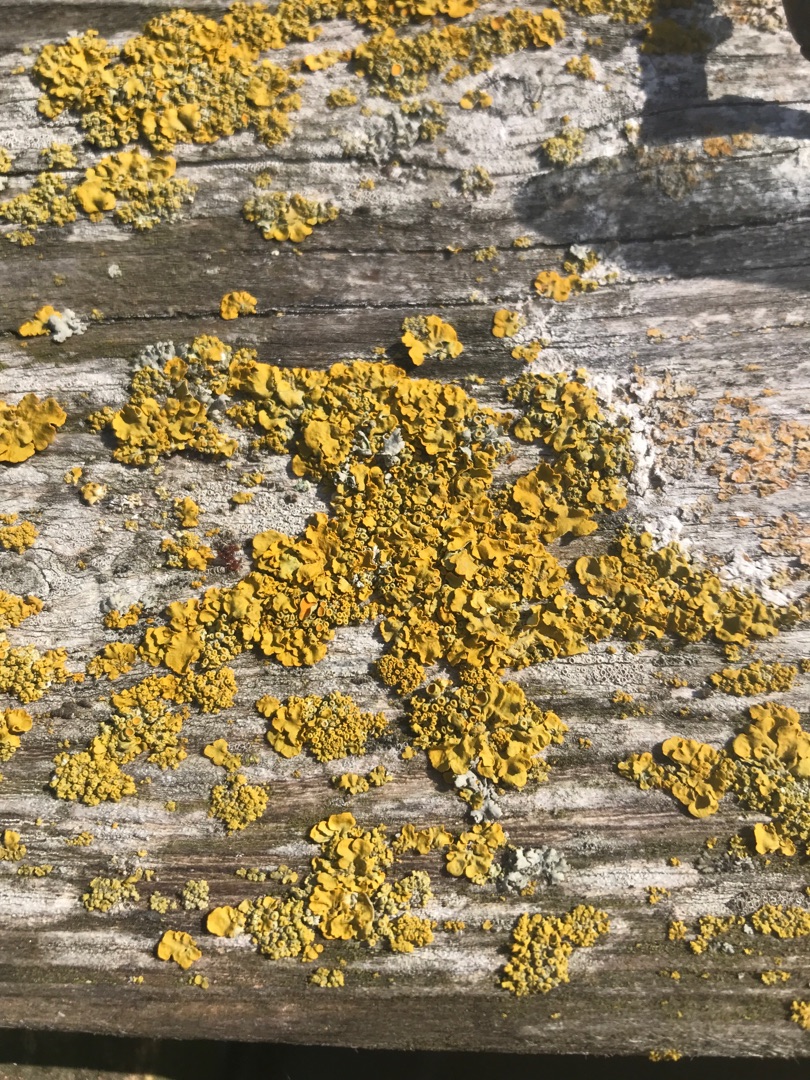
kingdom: Fungi
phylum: Ascomycota
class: Lecanoromycetes
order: Teloschistales
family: Teloschistaceae
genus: Xanthoria
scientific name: Xanthoria parietina
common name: Almindelig væggelav
